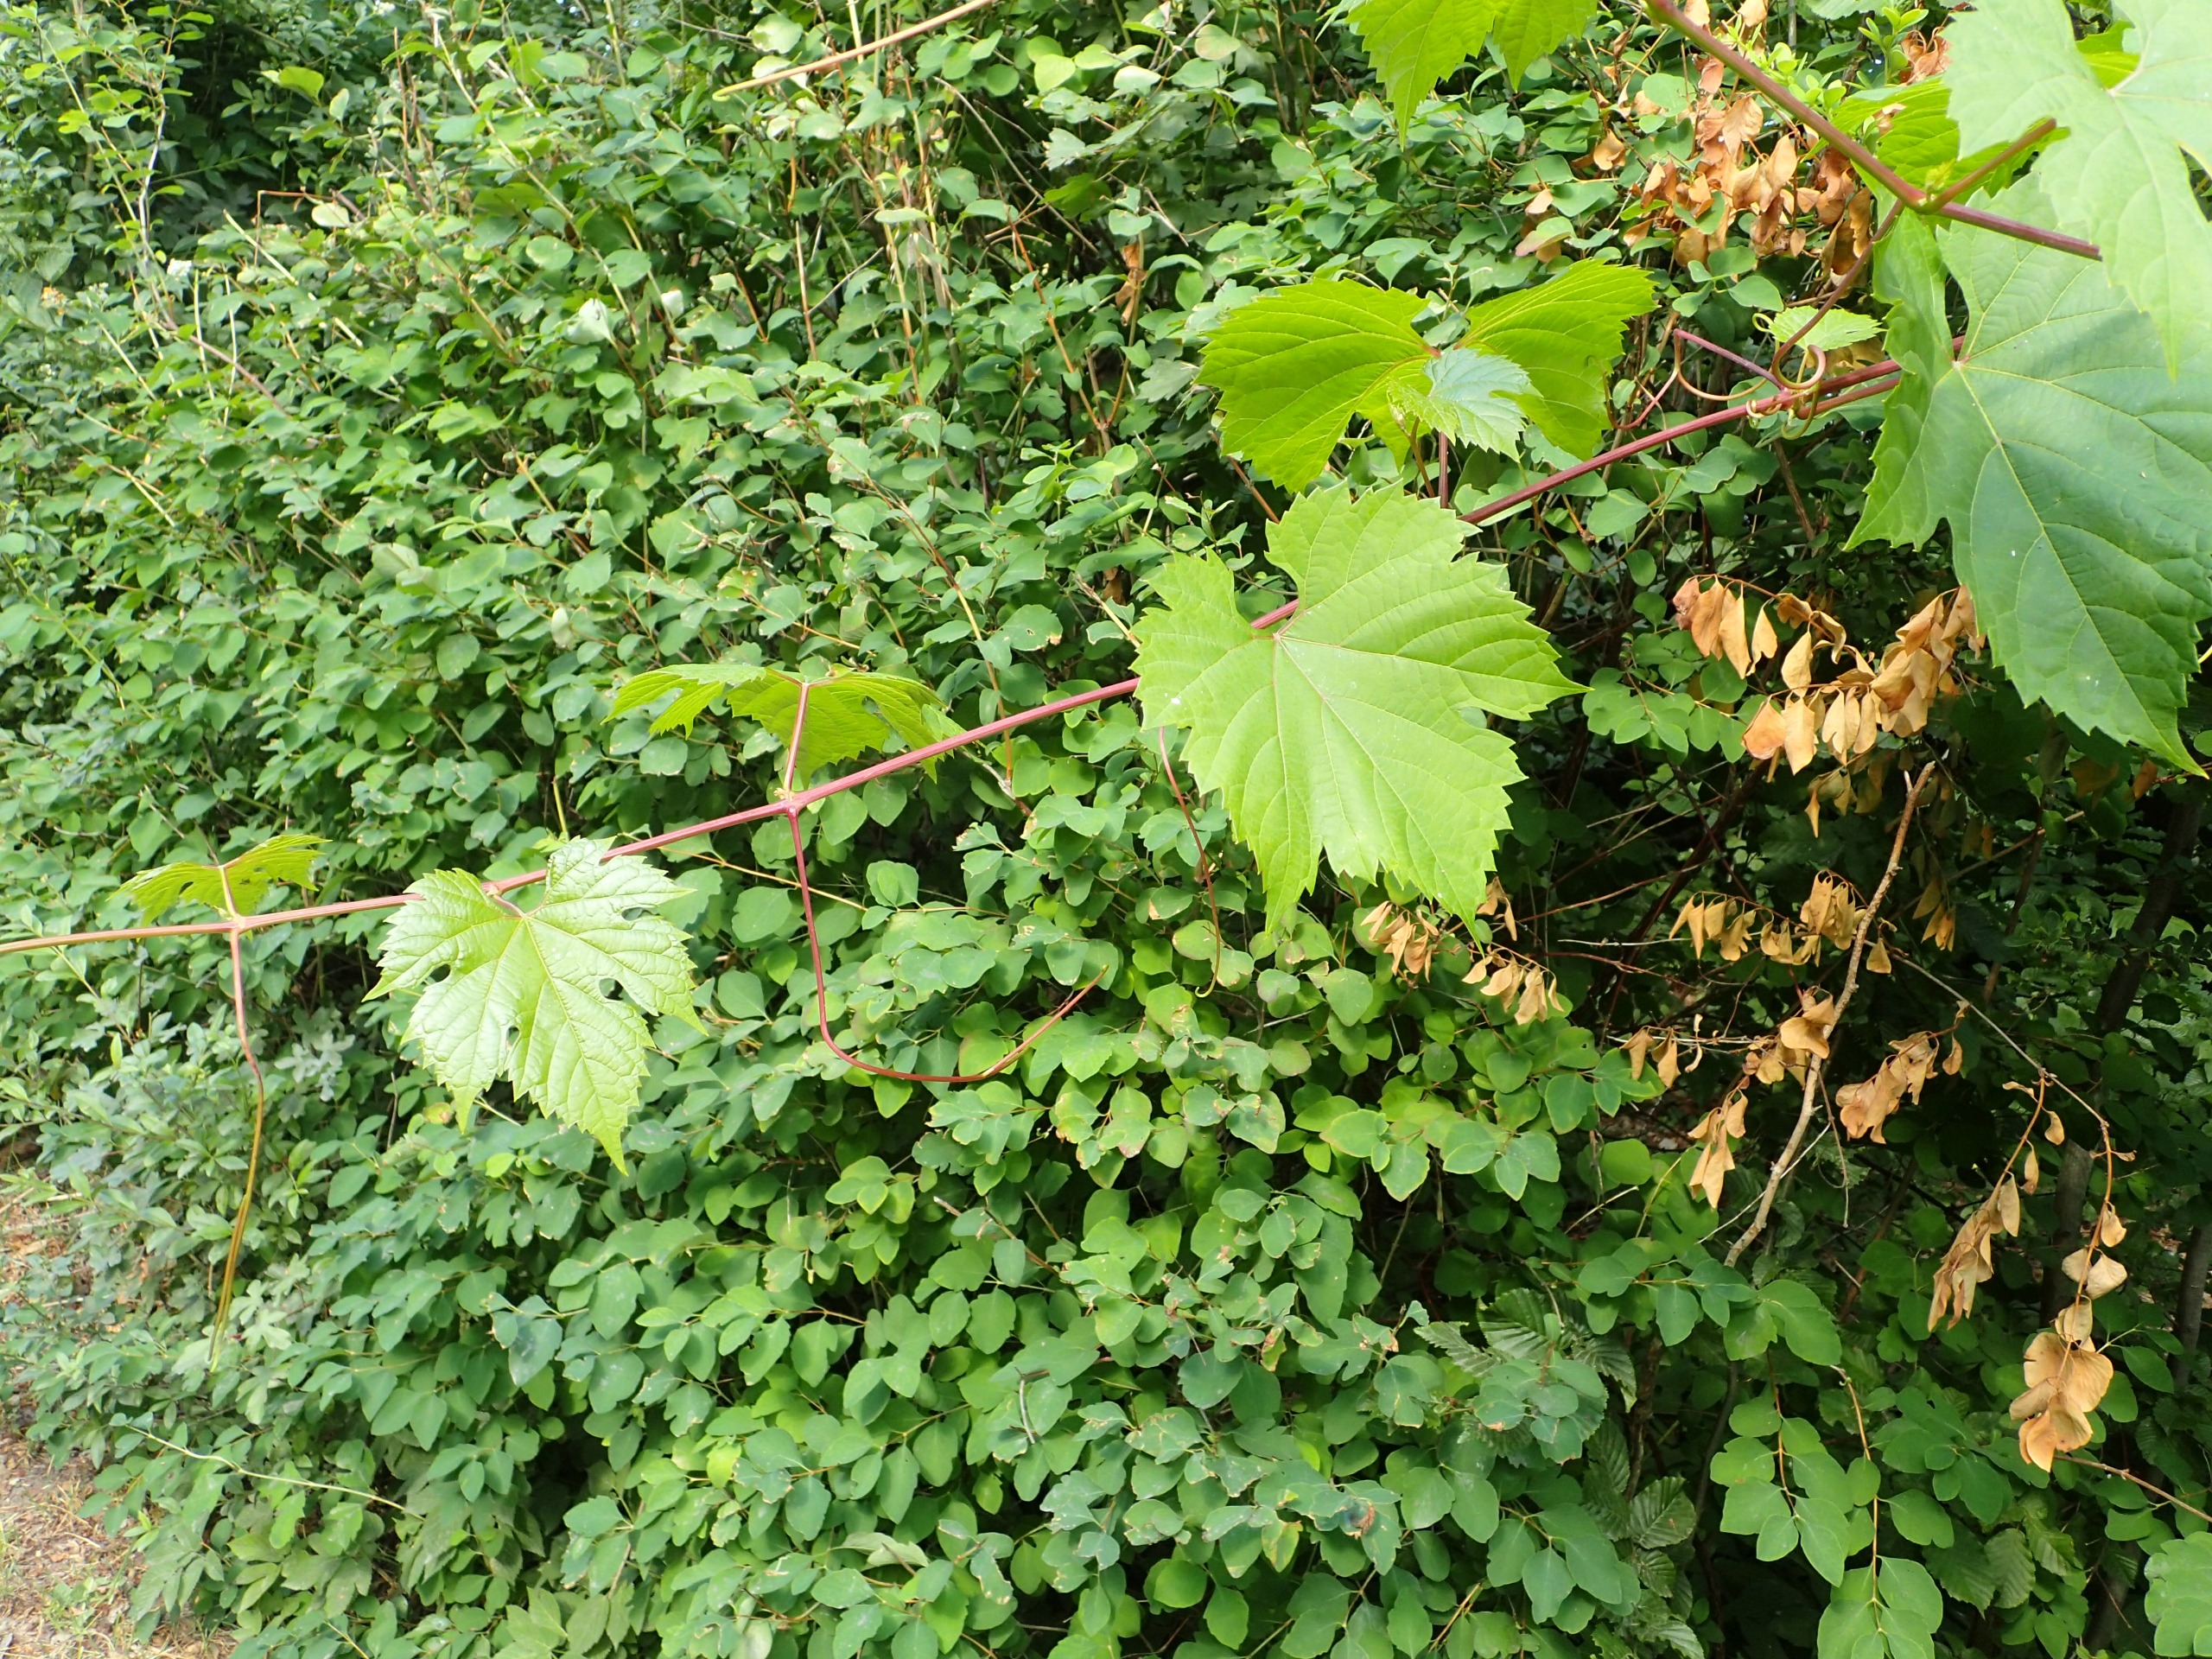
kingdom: Plantae
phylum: Tracheophyta
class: Magnoliopsida
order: Vitales
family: Vitaceae
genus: Vitis
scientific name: Vitis vinifera
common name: Almindelig vin
